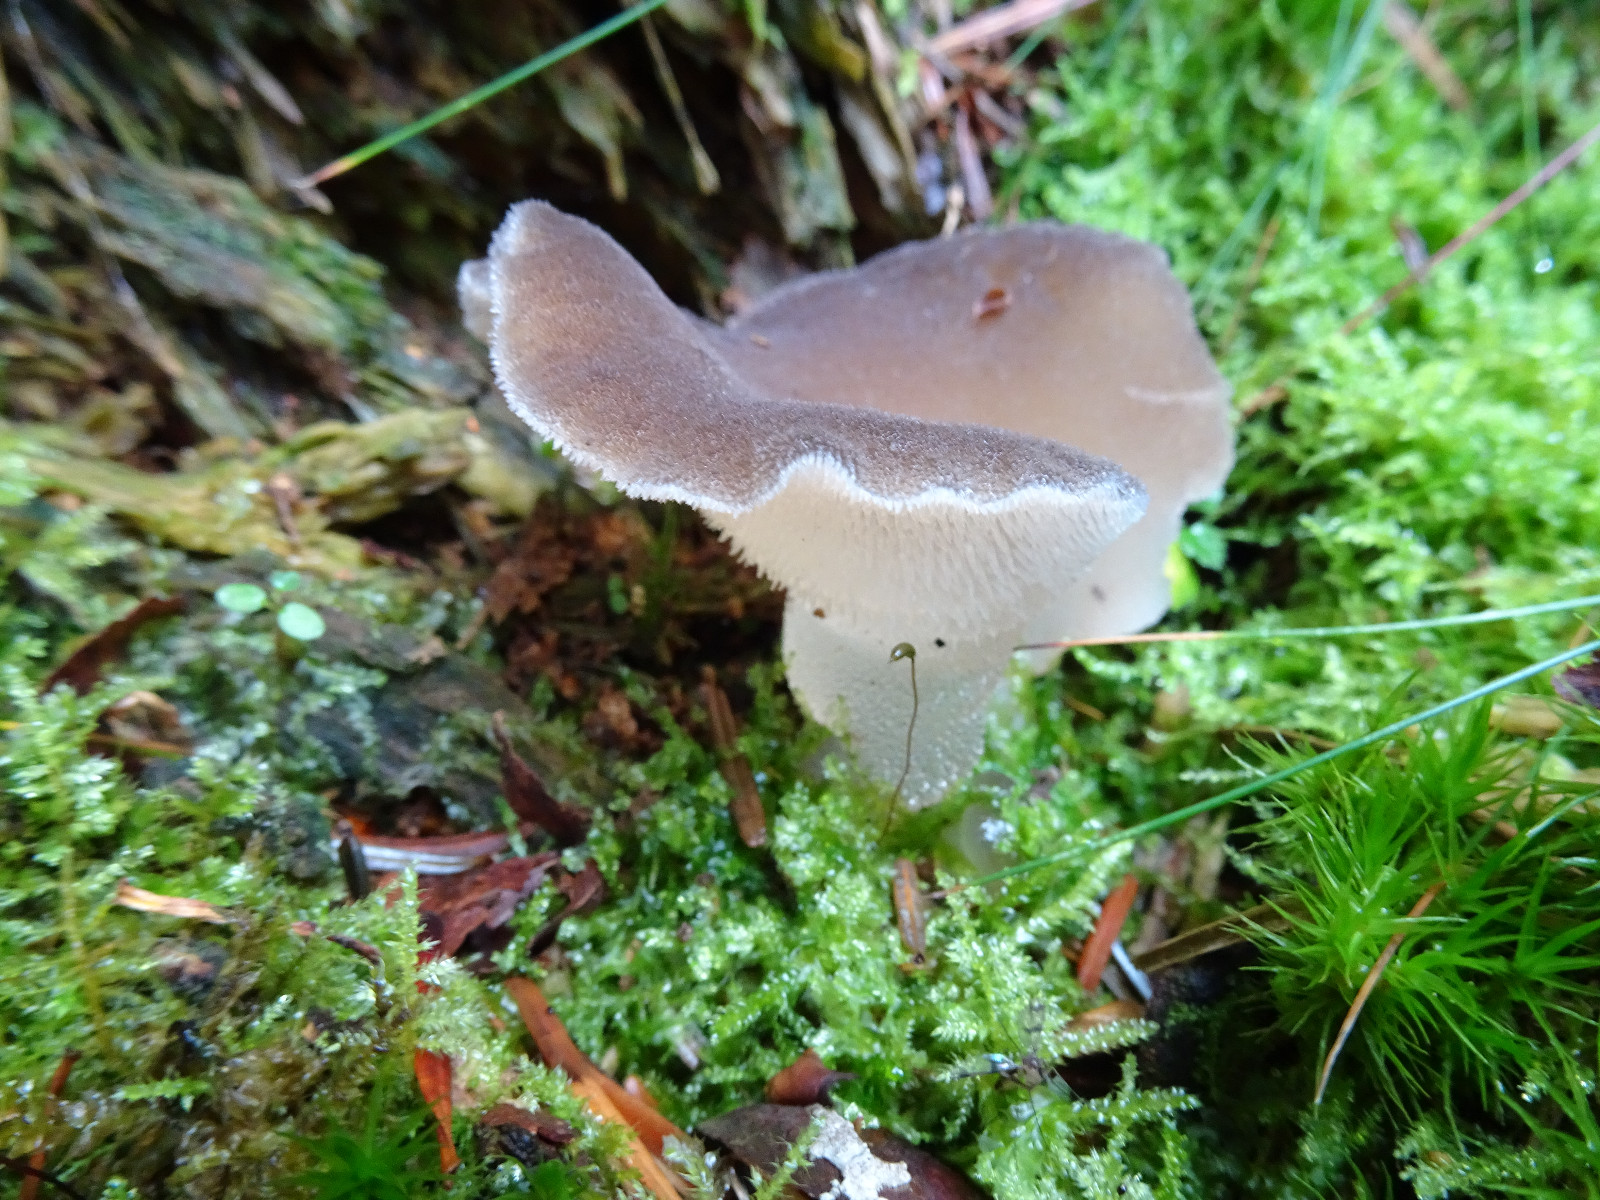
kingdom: Fungi
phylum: Basidiomycota
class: Agaricomycetes
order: Auriculariales
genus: Pseudohydnum
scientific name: Pseudohydnum gelatinosum
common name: bævretand
